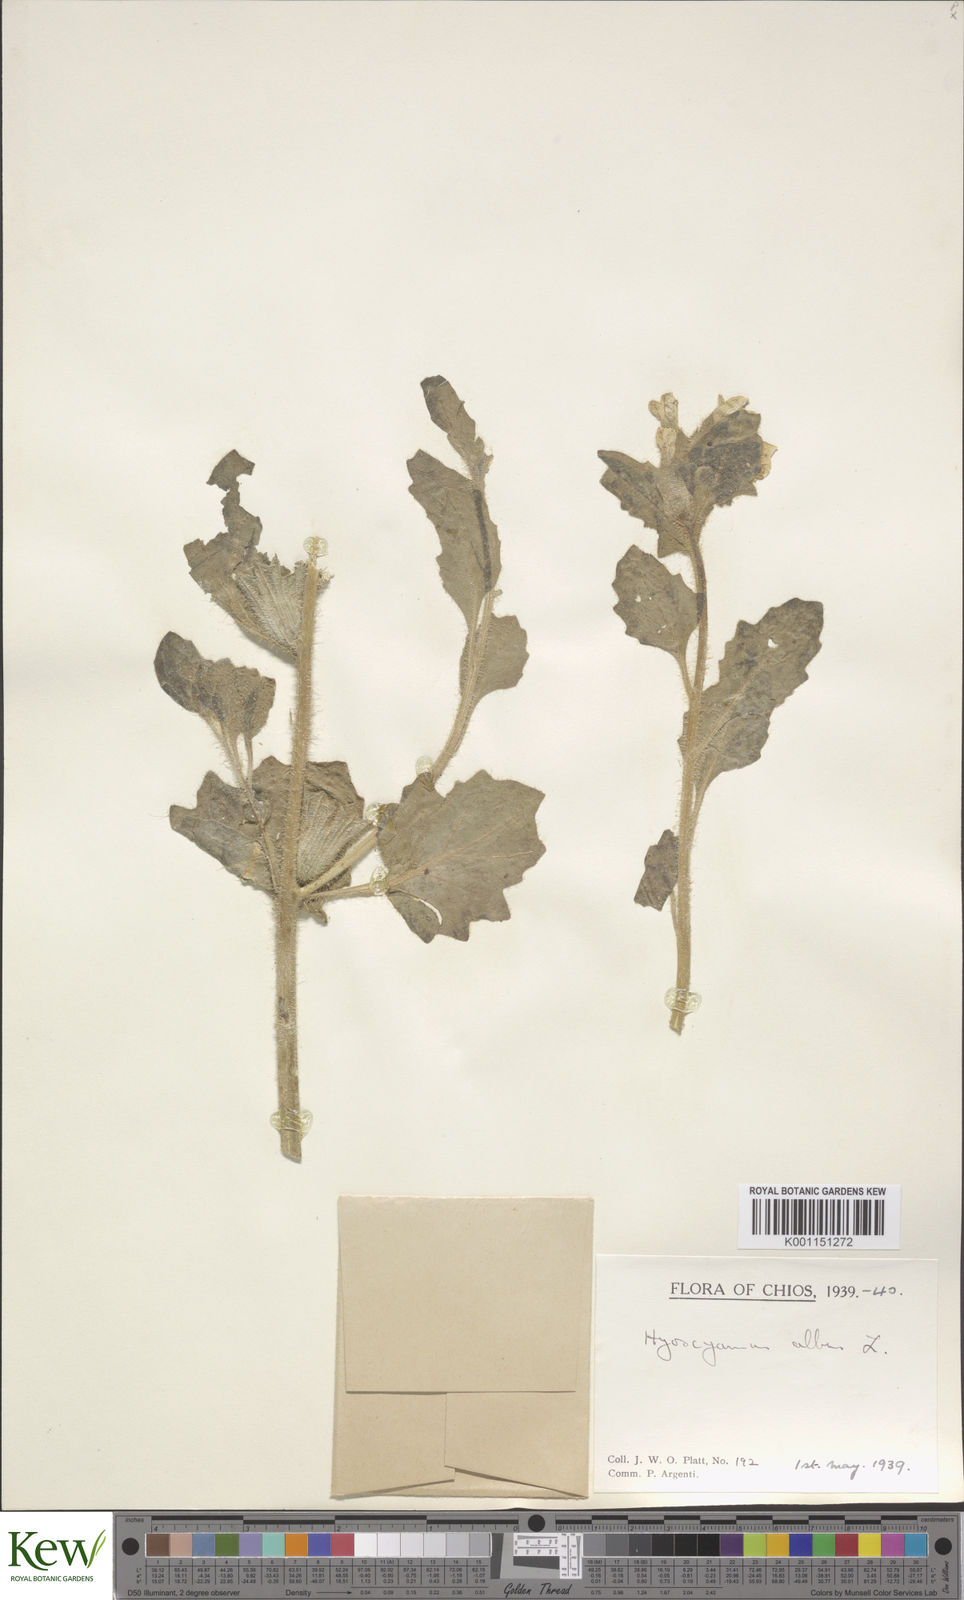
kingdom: Plantae
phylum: Tracheophyta
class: Magnoliopsida
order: Solanales
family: Solanaceae
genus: Solanum
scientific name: Solanum nigrum
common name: Black nightshade
